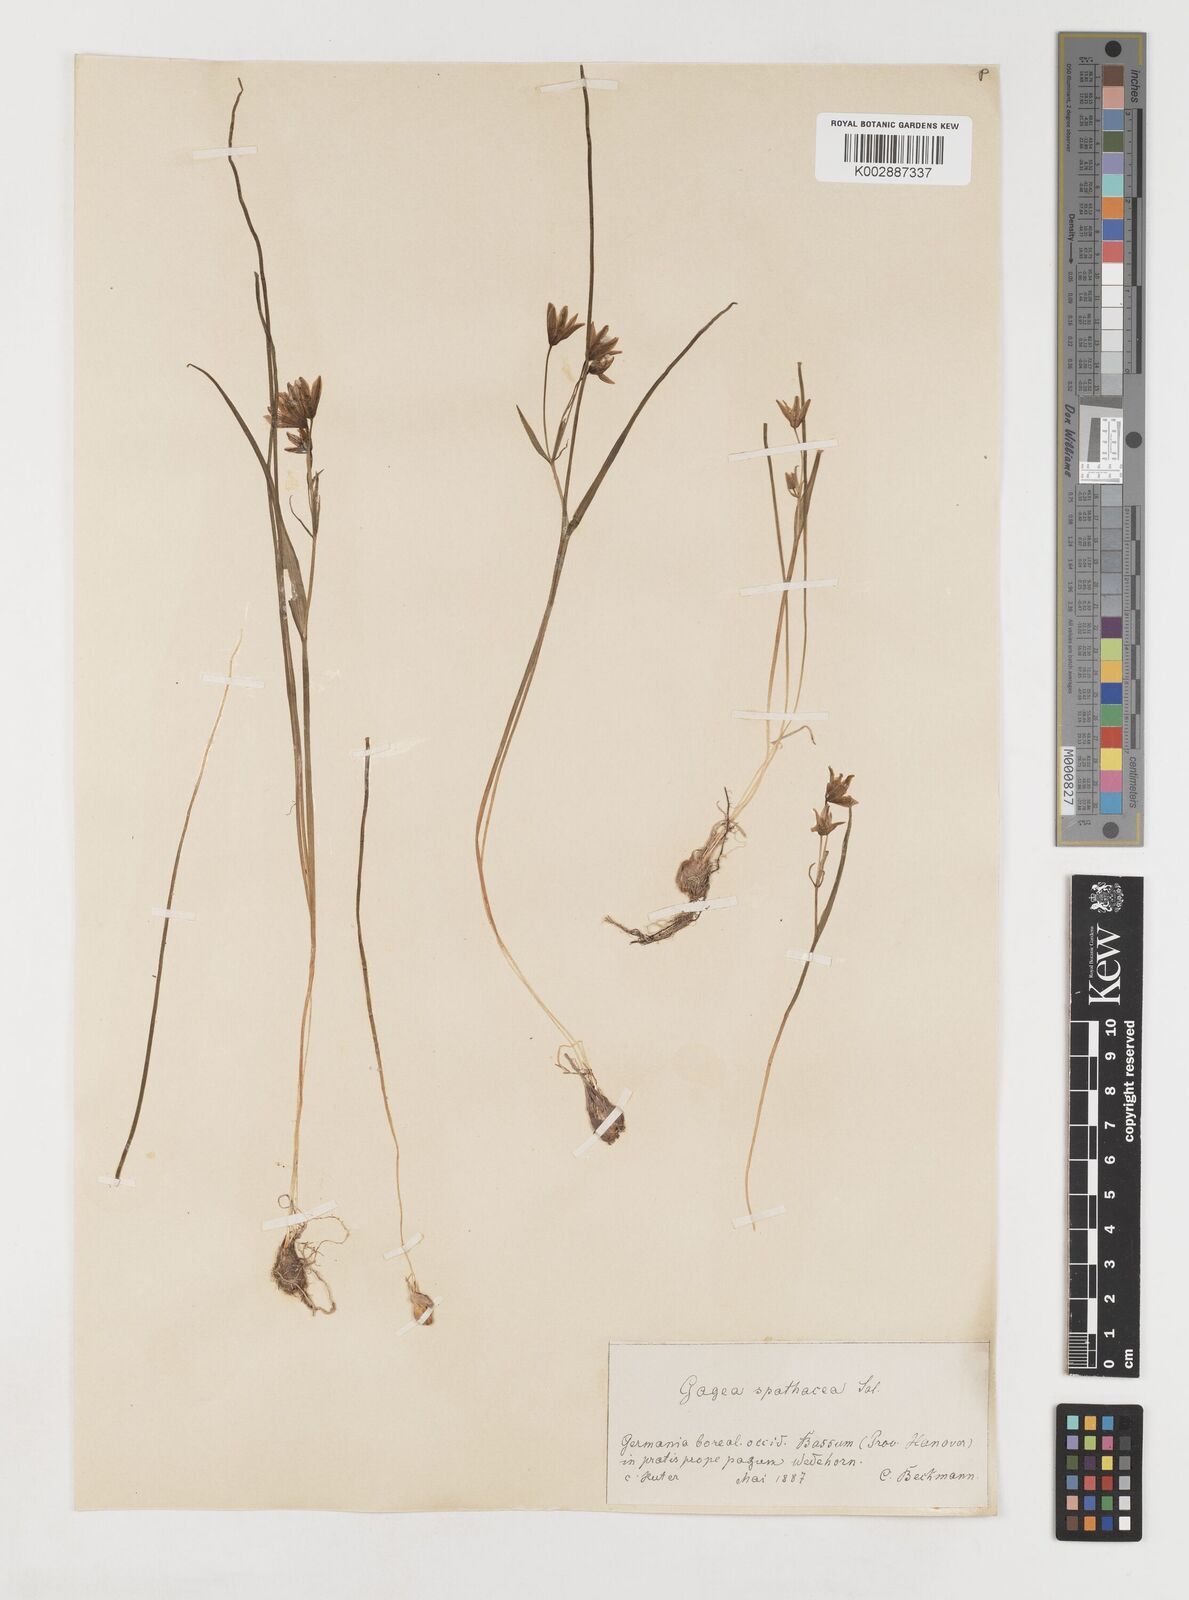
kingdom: Plantae
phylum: Tracheophyta
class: Liliopsida
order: Liliales
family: Liliaceae
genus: Gagea
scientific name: Gagea spathacea
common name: Belgian gagea
